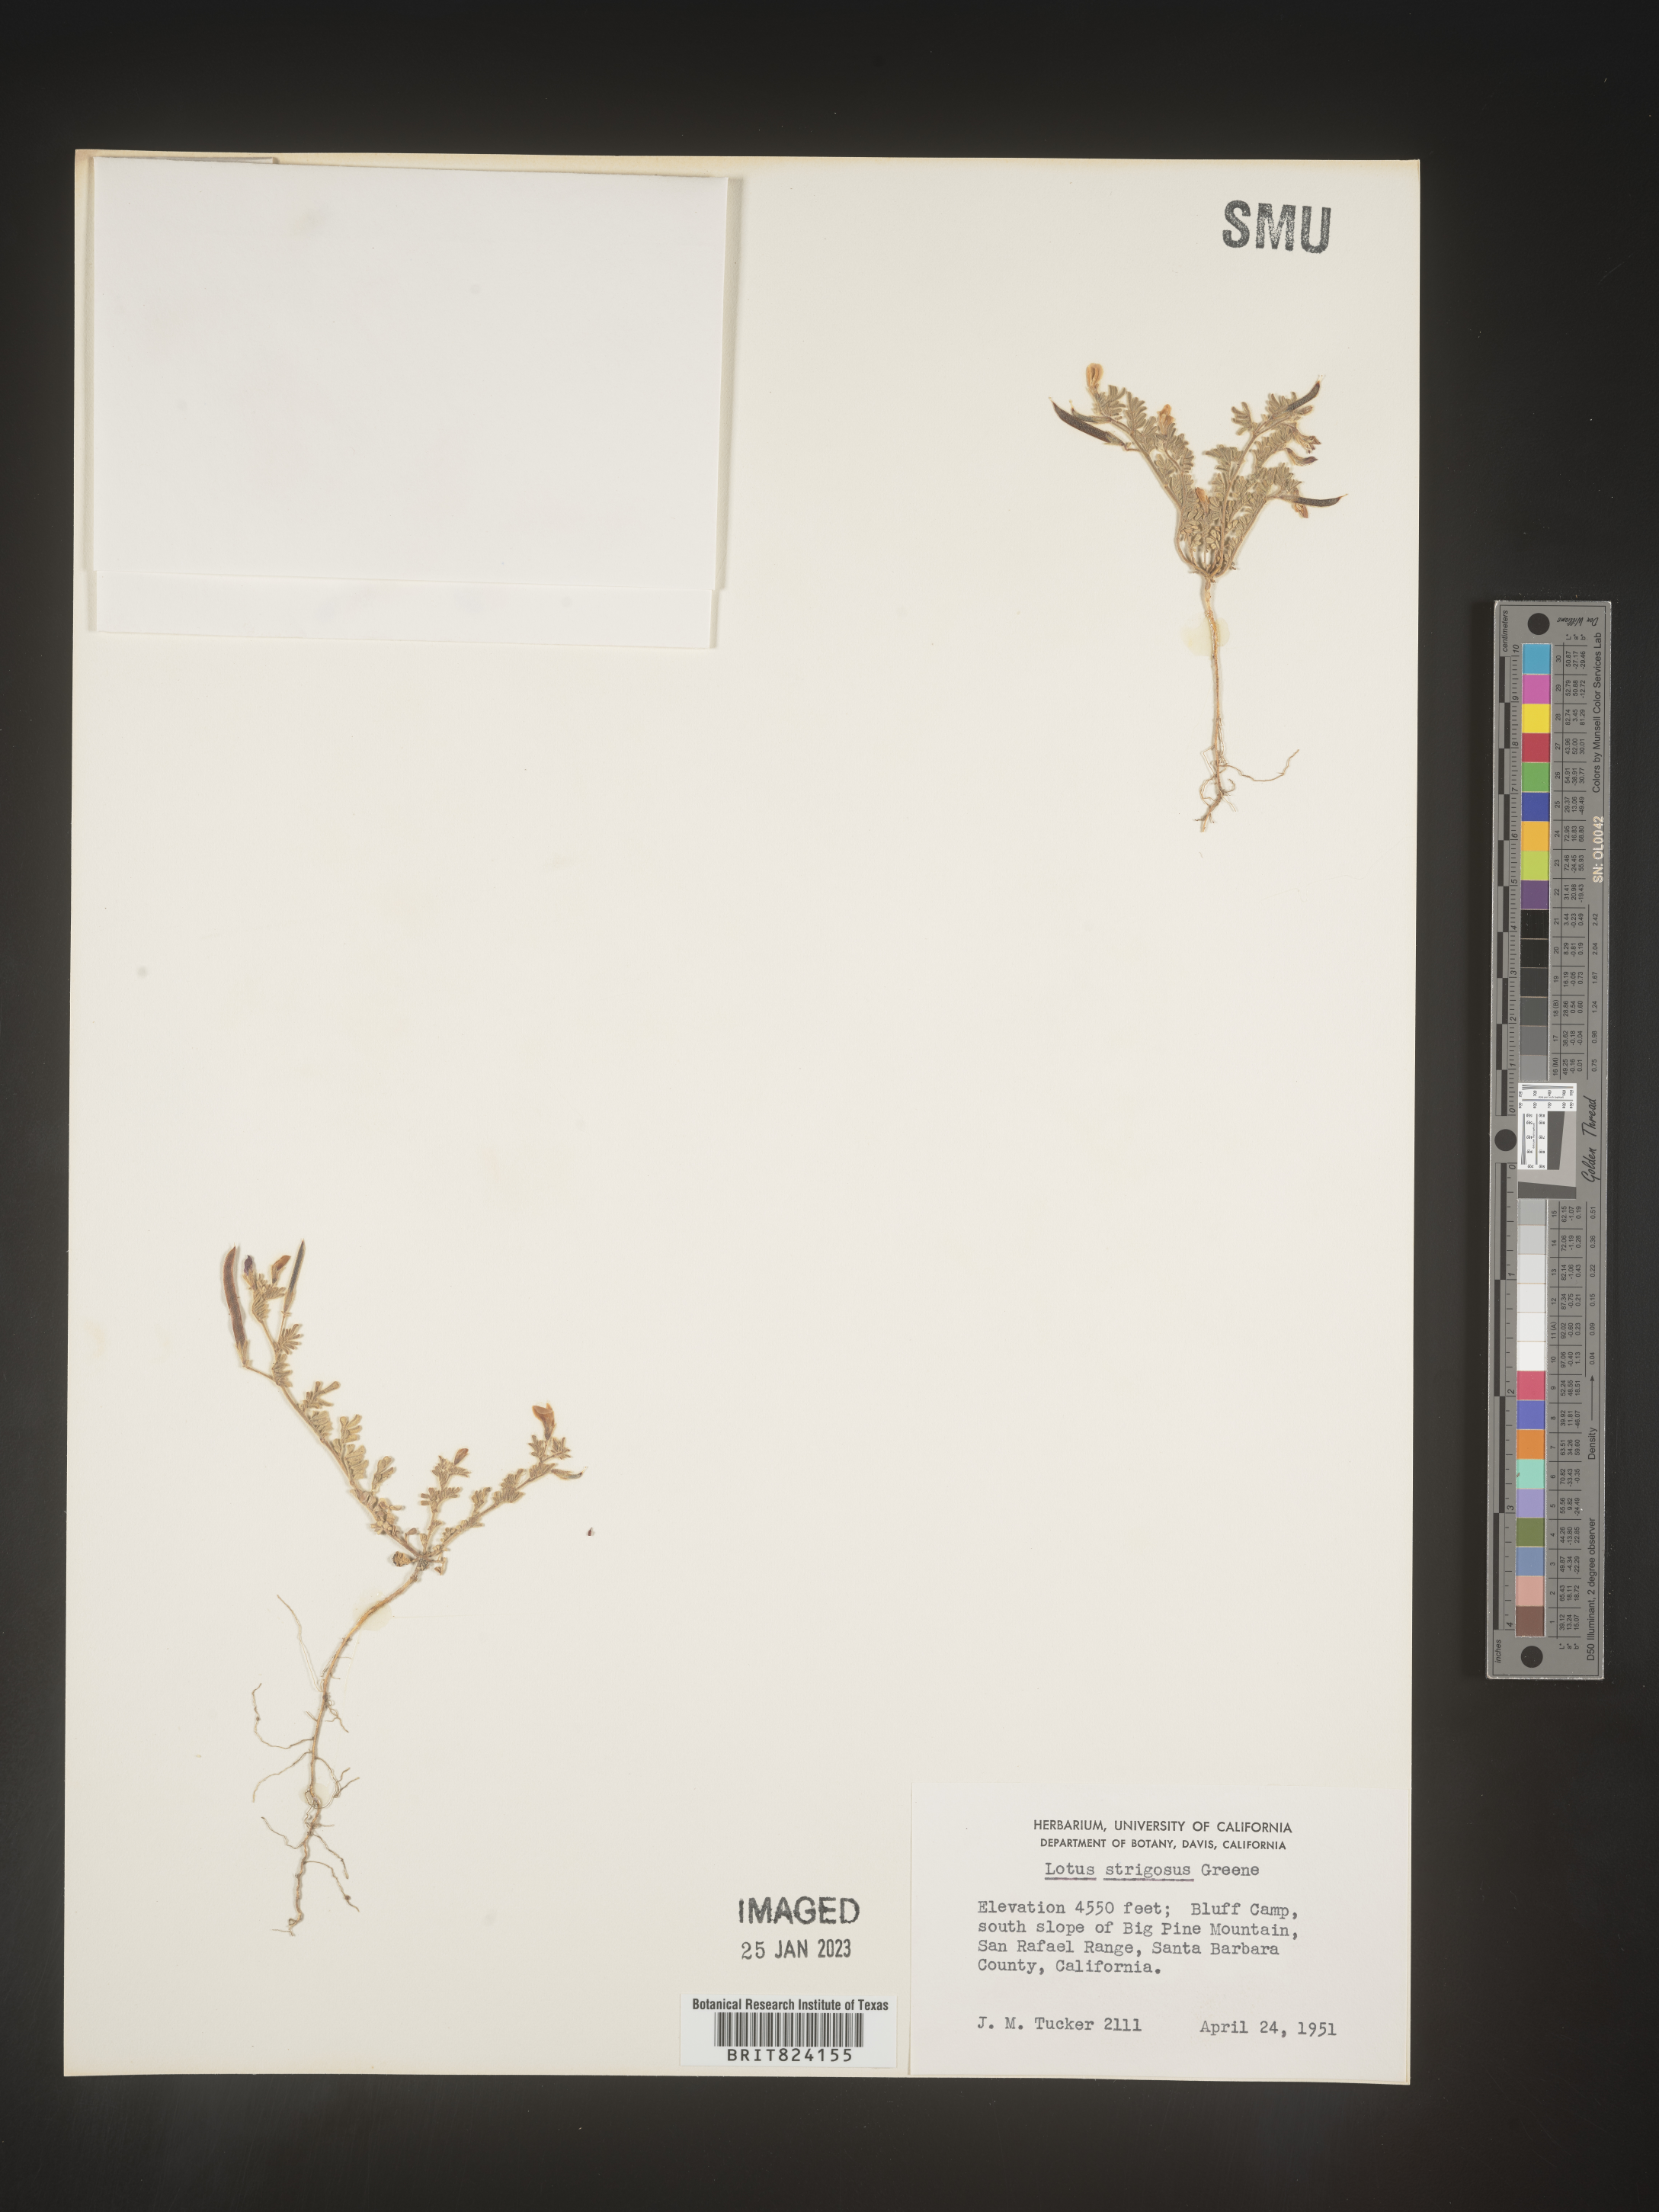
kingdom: Plantae
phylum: Tracheophyta
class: Magnoliopsida
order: Fabales
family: Fabaceae
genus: Lotus
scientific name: Lotus
